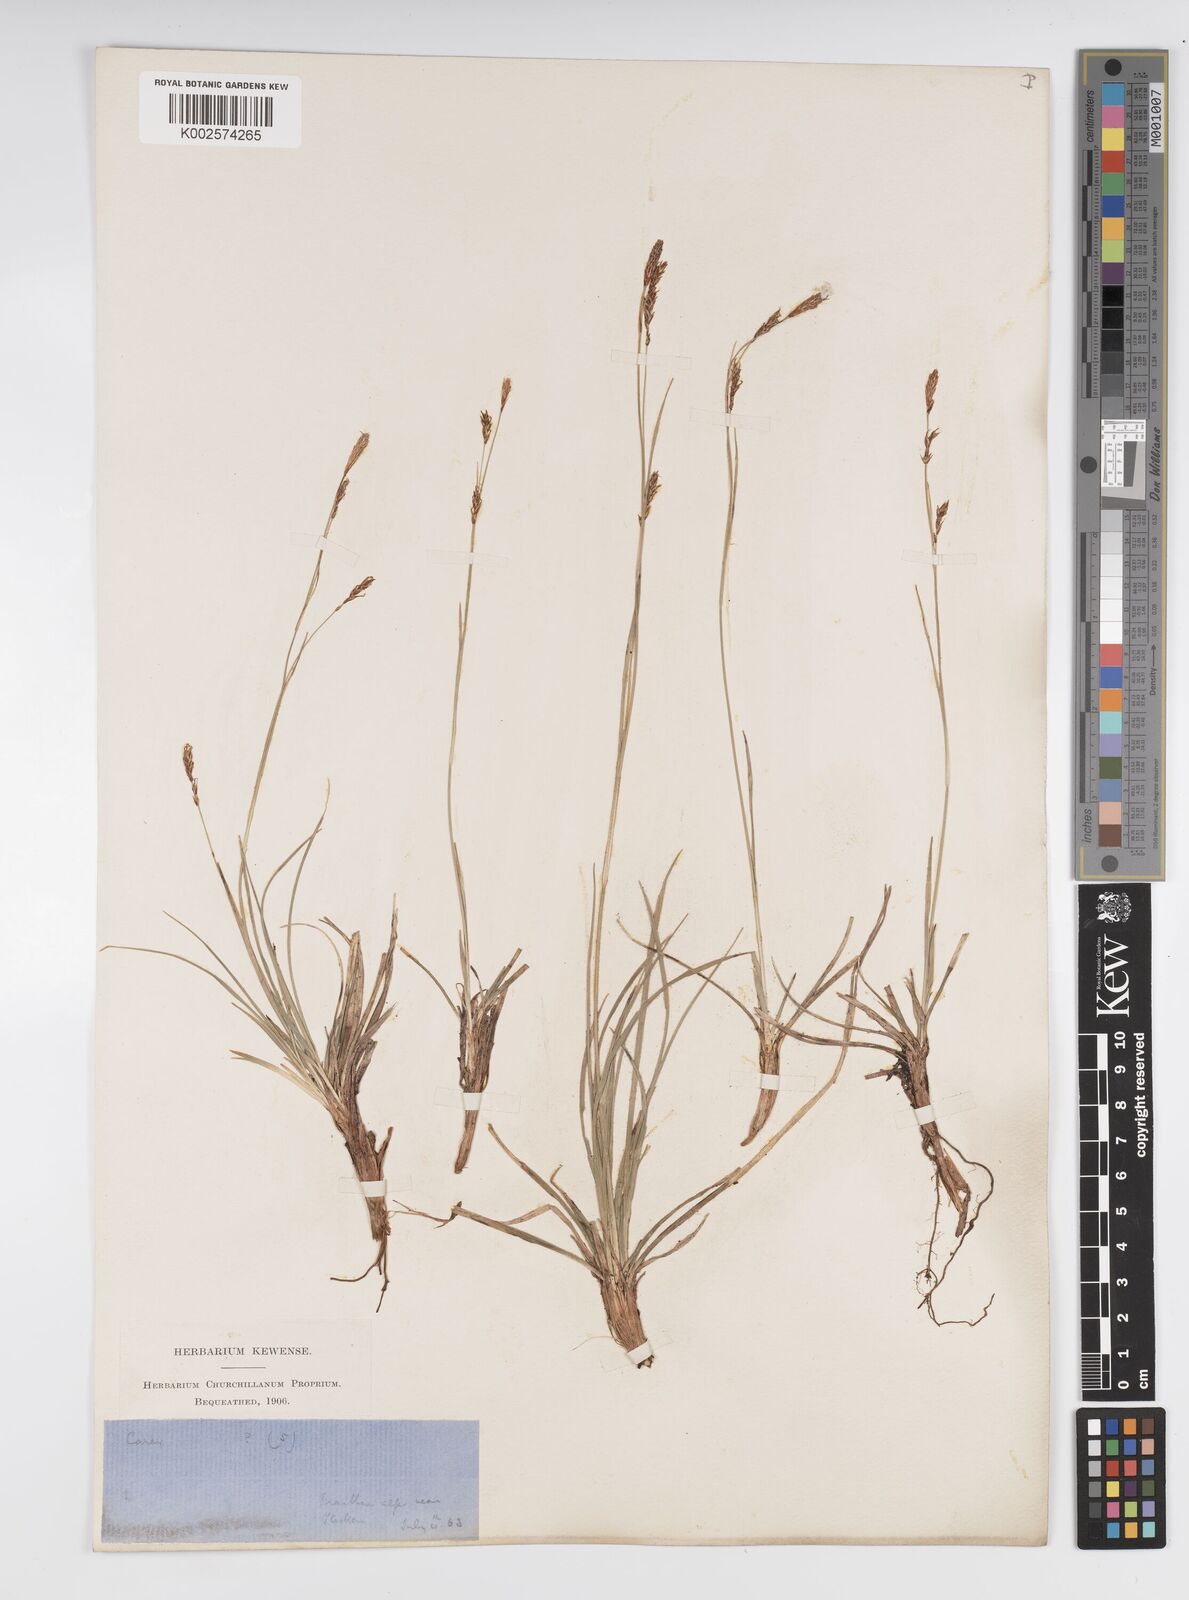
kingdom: Plantae
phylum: Tracheophyta
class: Liliopsida
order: Poales
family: Cyperaceae
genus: Carex
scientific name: Carex frigida
